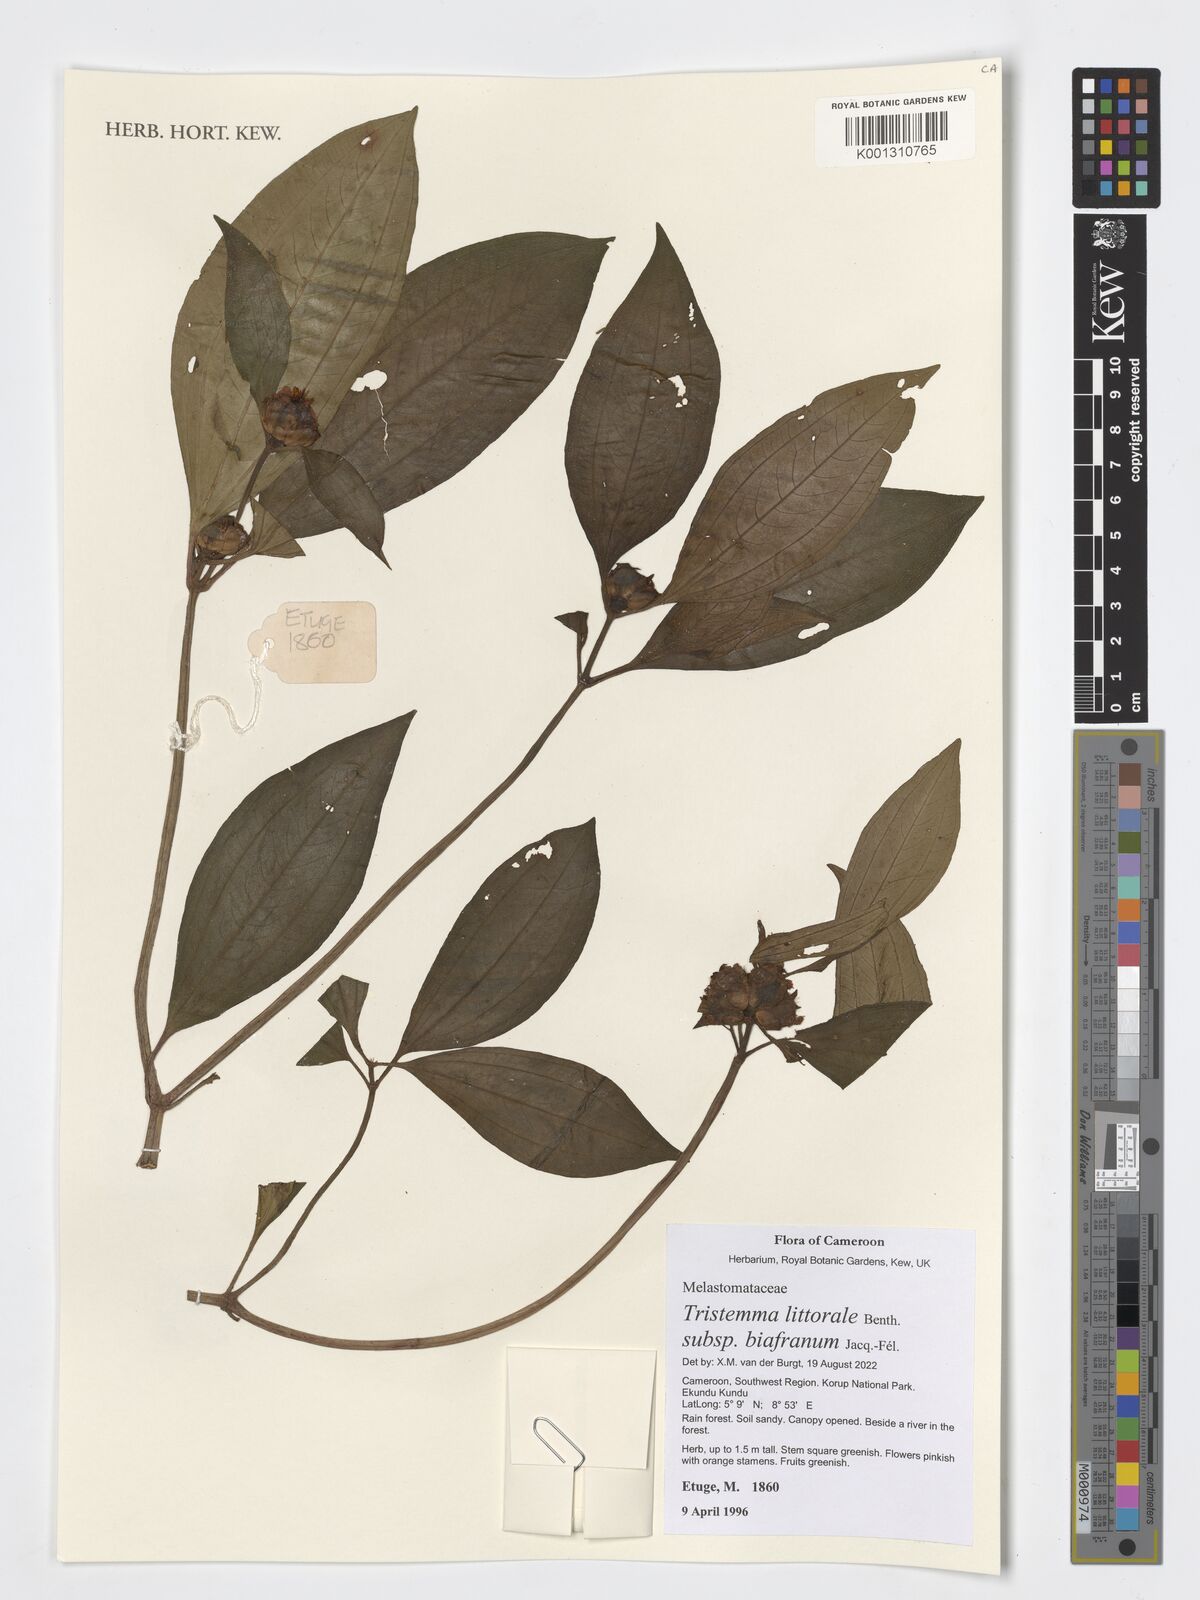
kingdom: Plantae
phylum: Tracheophyta
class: Magnoliopsida
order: Myrtales
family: Melastomataceae
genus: Tristemma
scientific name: Tristemma littorale
